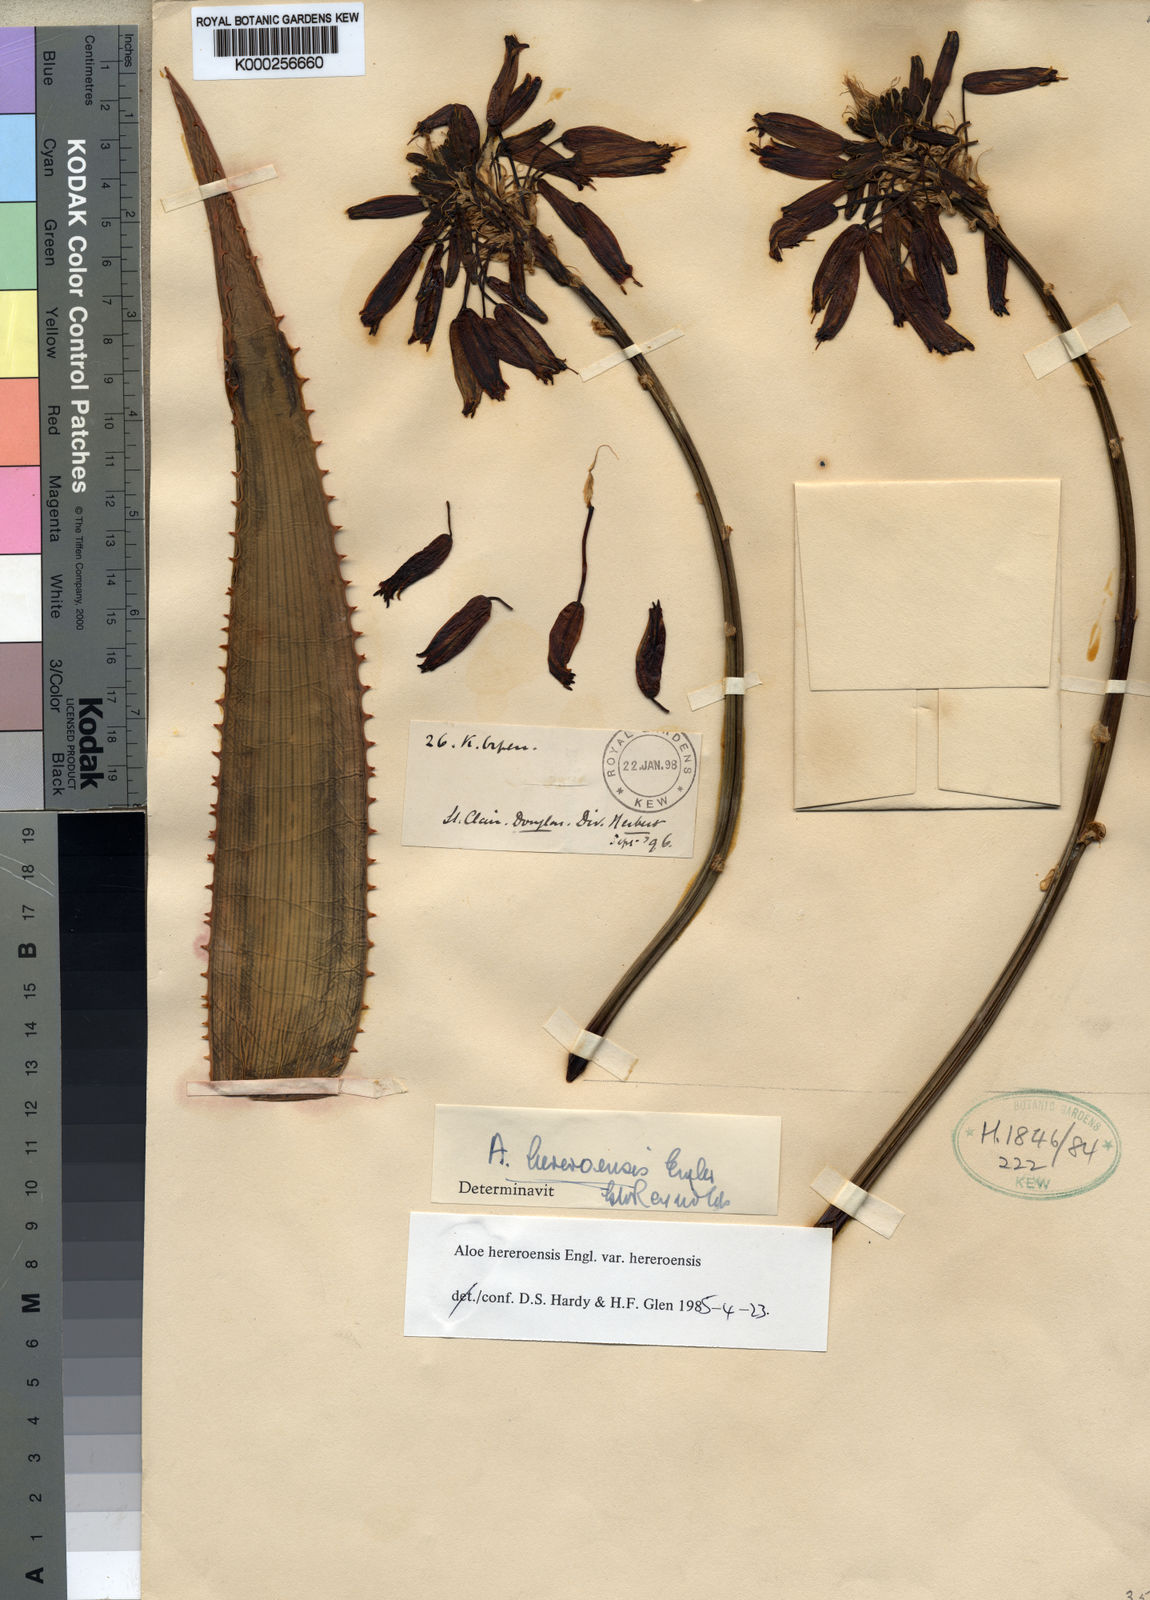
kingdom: Plantae
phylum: Tracheophyta
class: Liliopsida
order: Asparagales
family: Asphodelaceae
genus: Aloe
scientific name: Aloe hereroensis
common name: Herero aloe
